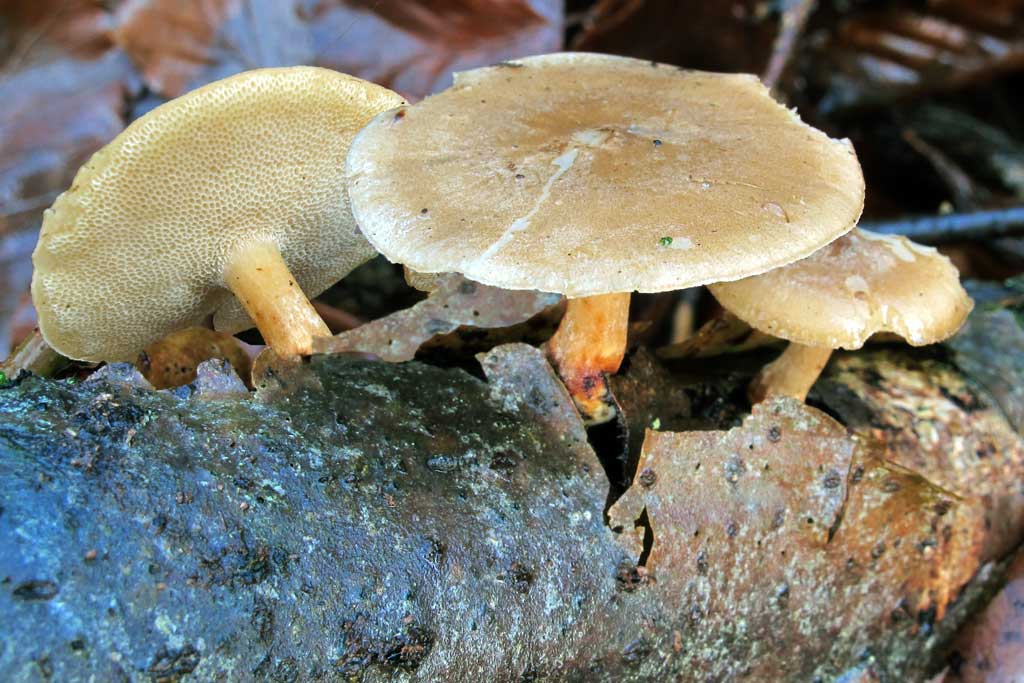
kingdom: Fungi
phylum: Basidiomycota
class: Agaricomycetes
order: Polyporales
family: Polyporaceae
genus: Lentinus
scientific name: Lentinus brumalis
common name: vinter-stilkporesvamp
